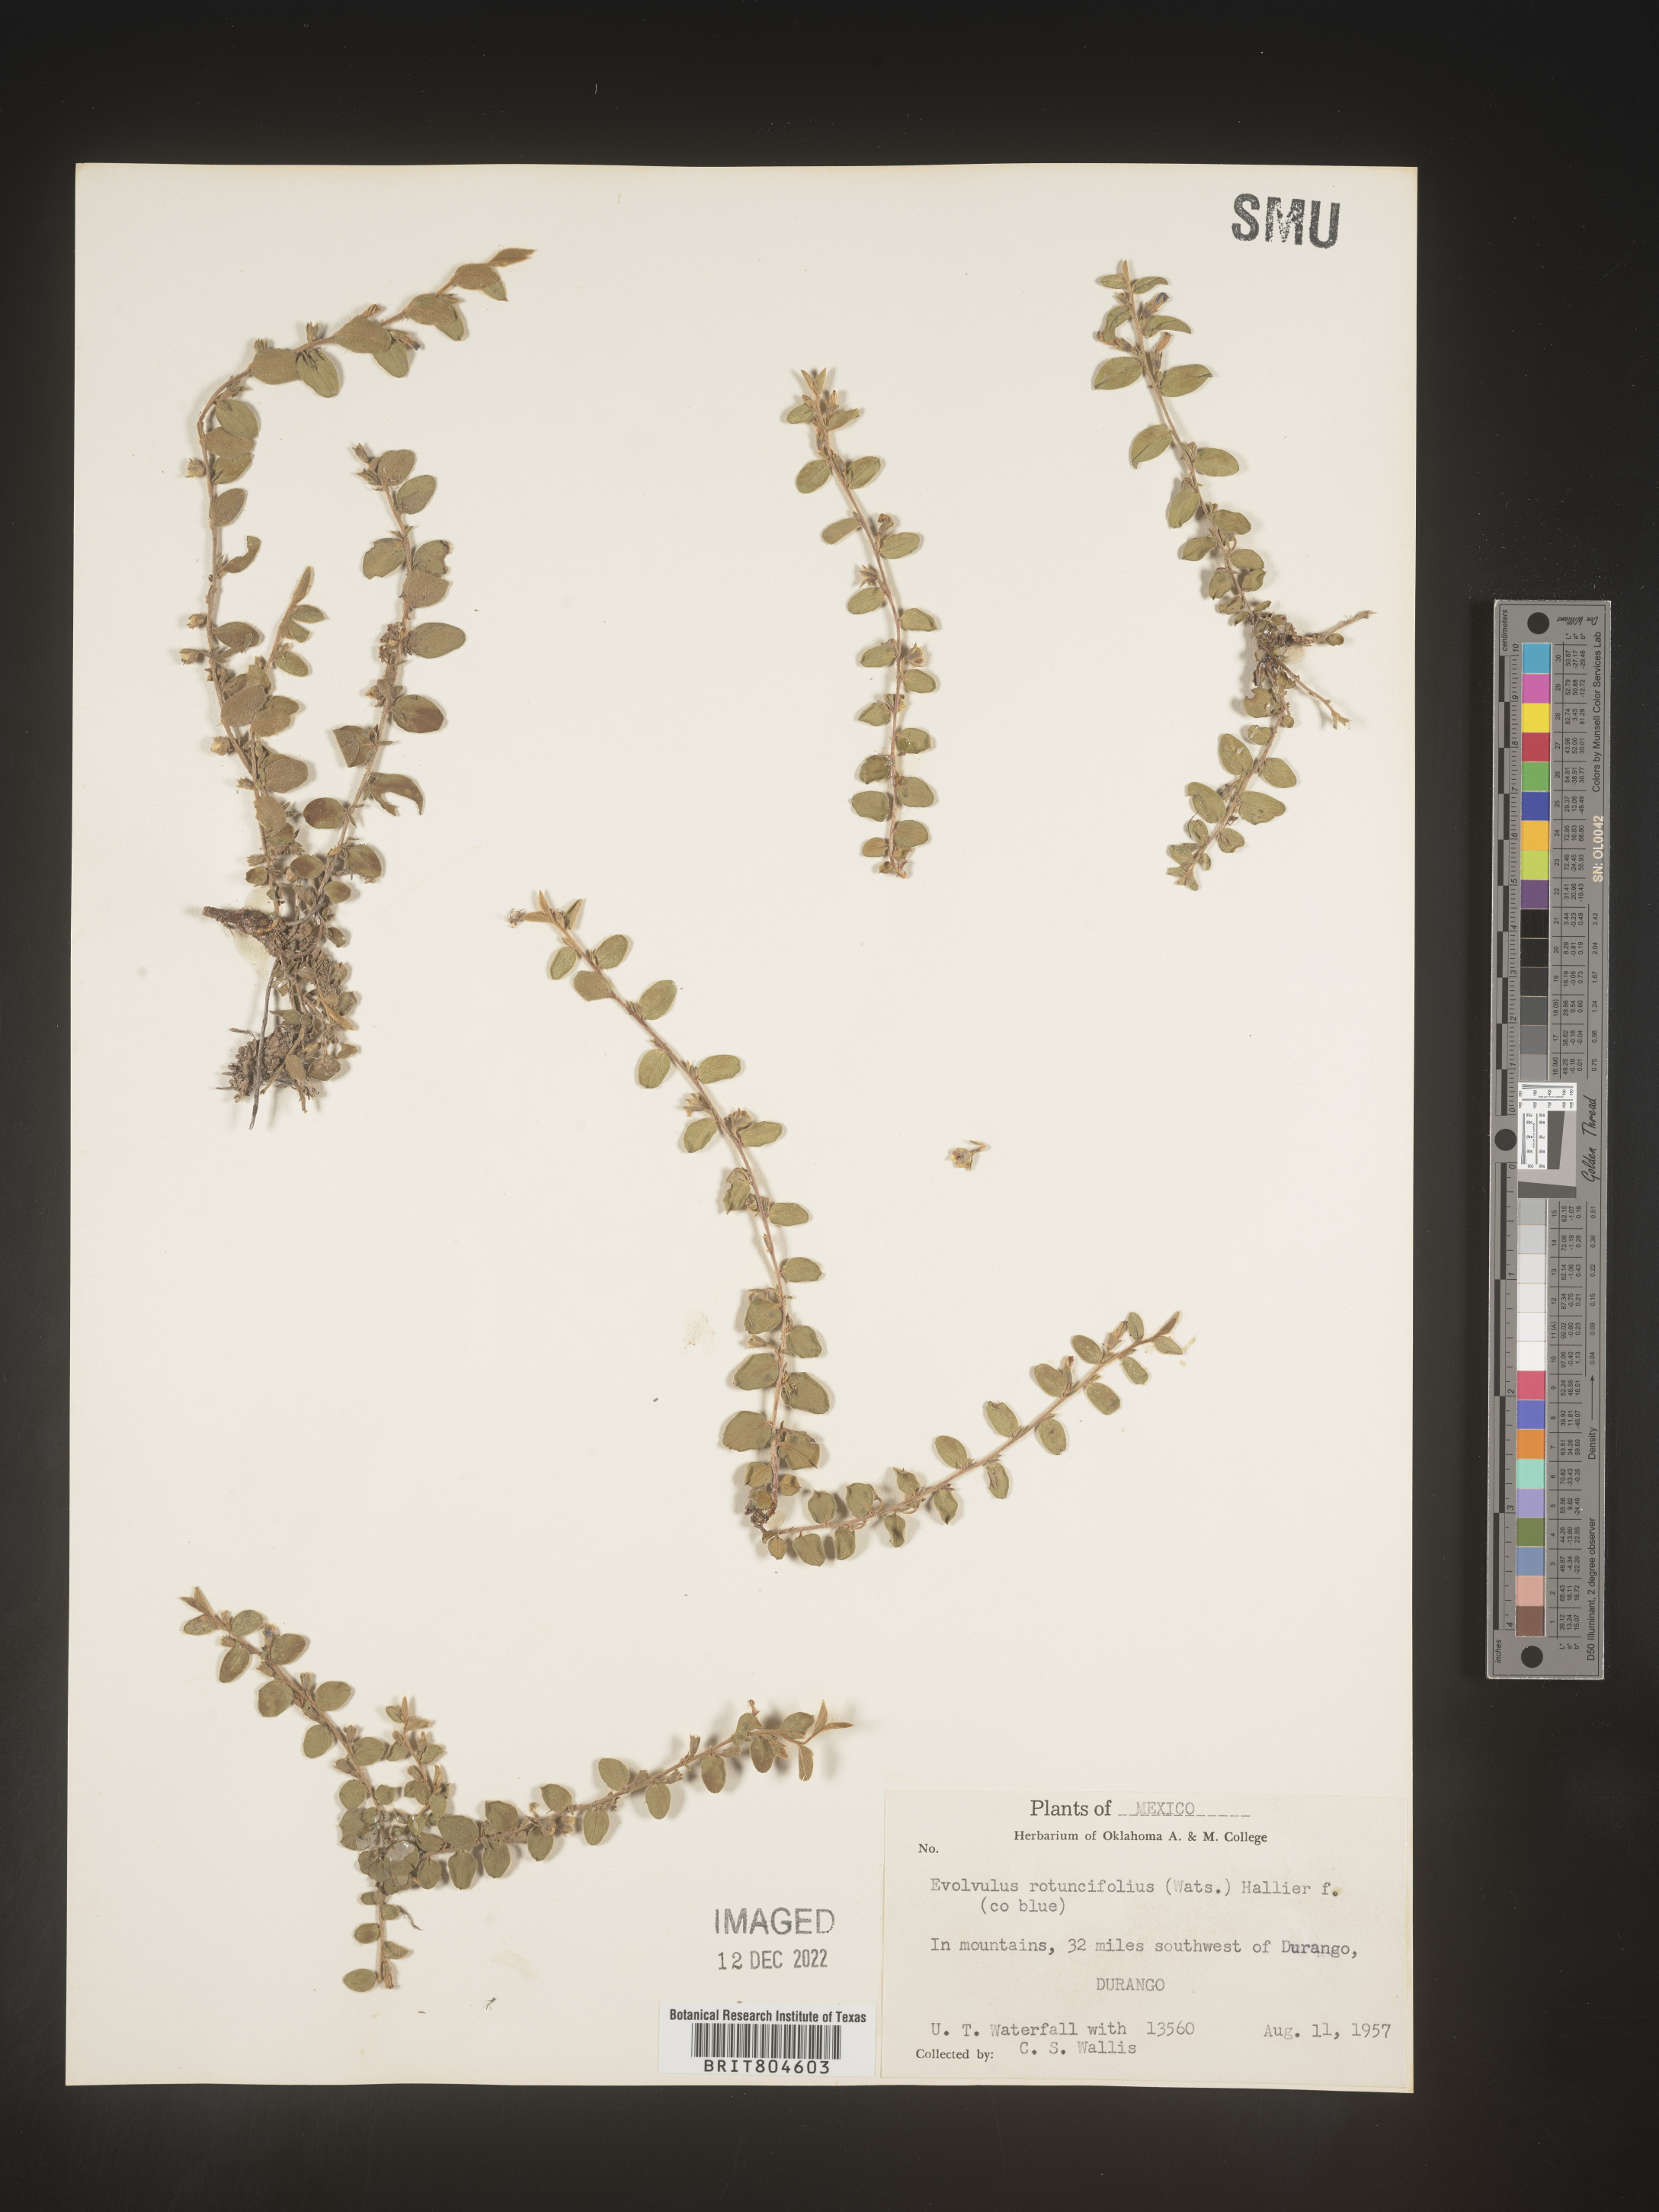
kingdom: Plantae
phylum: Tracheophyta
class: Magnoliopsida
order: Solanales
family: Convolvulaceae
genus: Evolvulus
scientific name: Evolvulus
